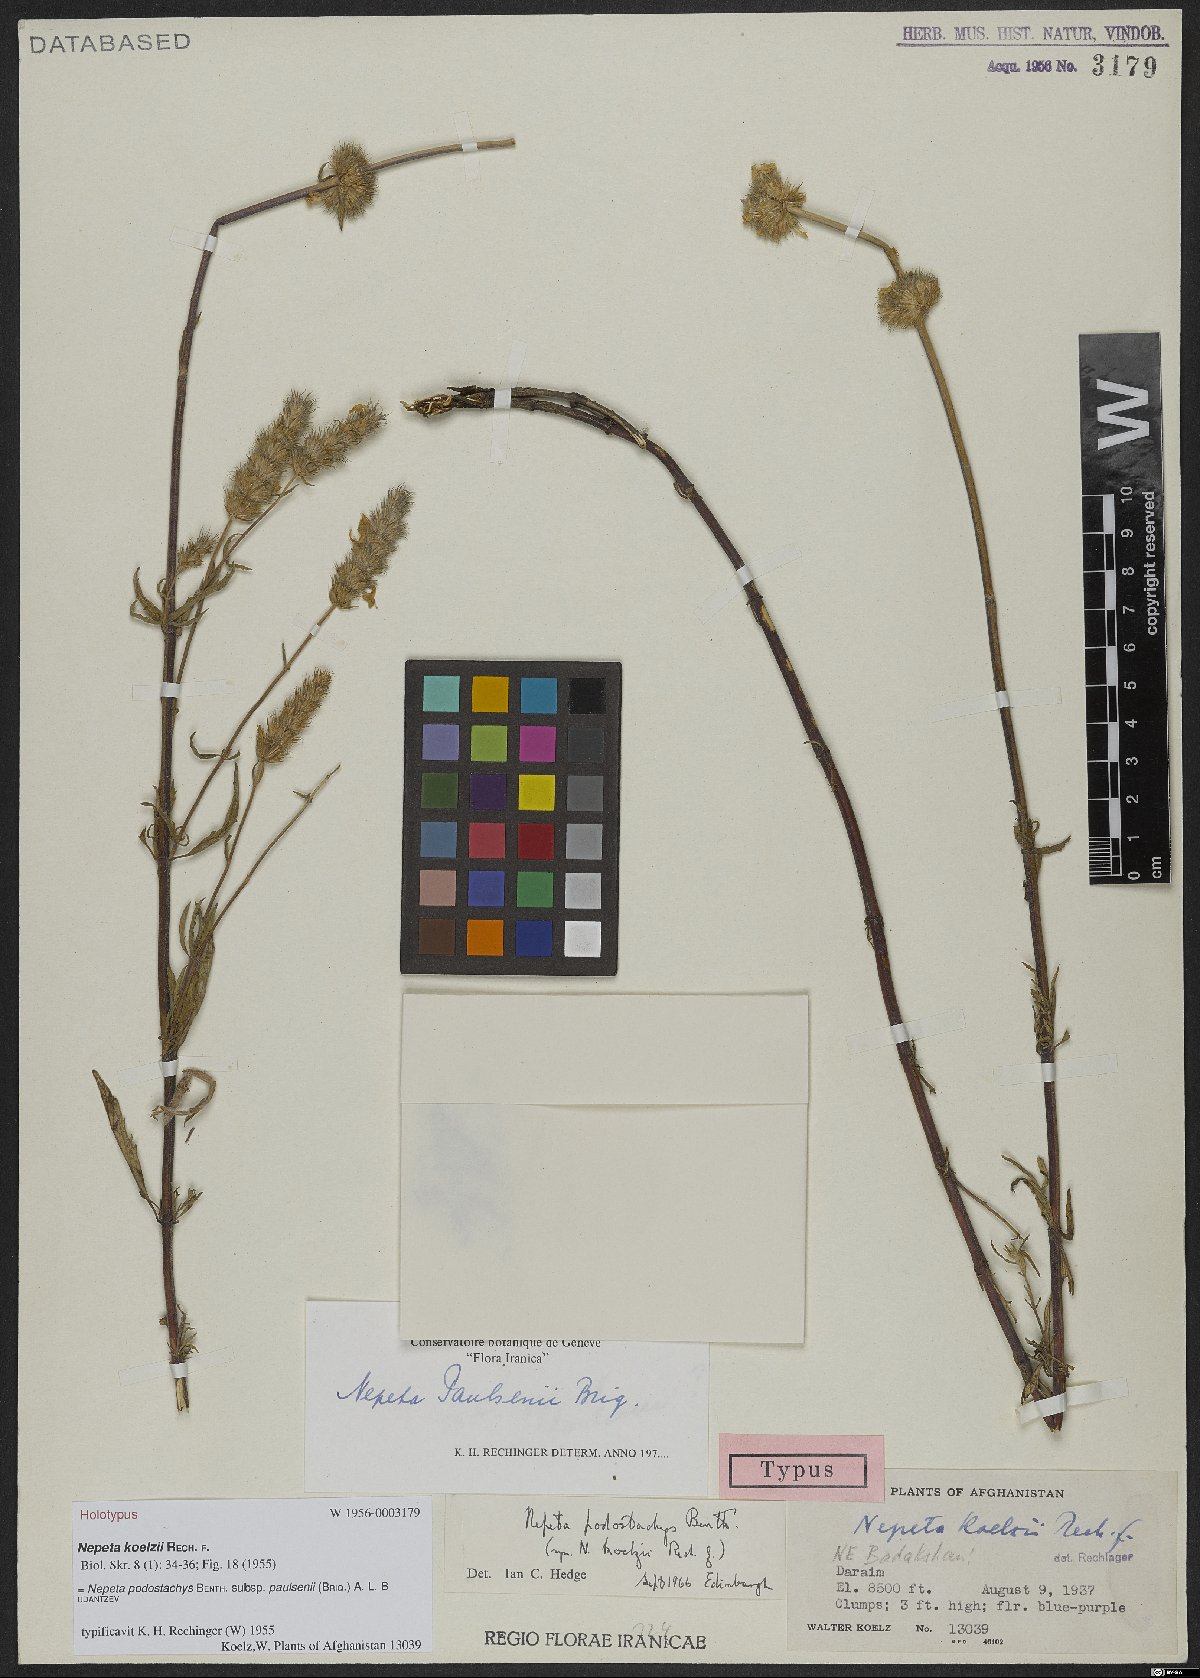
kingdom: Plantae
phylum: Tracheophyta
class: Magnoliopsida
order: Lamiales
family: Lamiaceae
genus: Nepeta
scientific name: Nepeta podostachys
